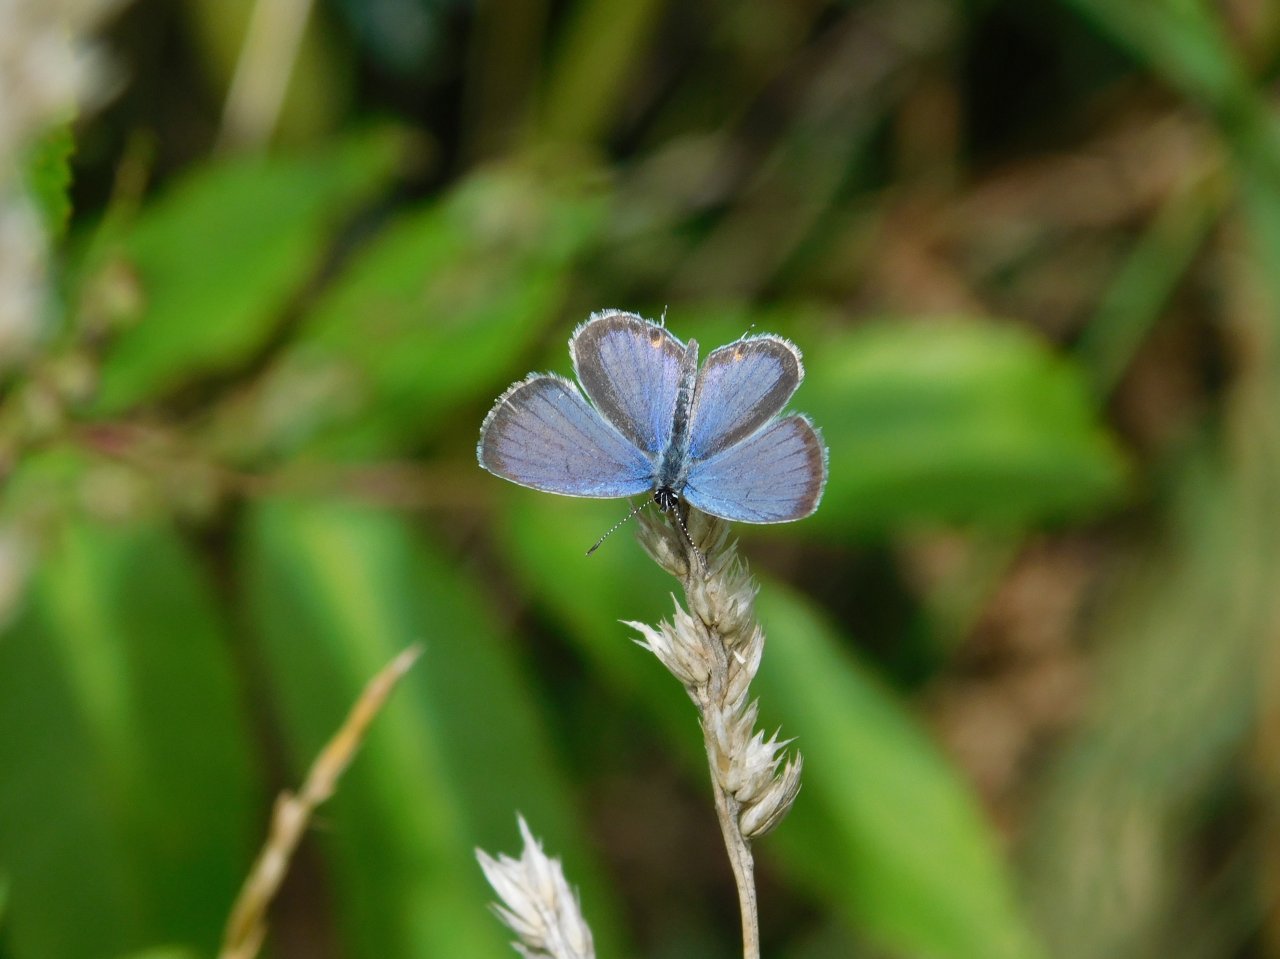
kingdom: Animalia
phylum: Arthropoda
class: Insecta
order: Lepidoptera
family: Lycaenidae
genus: Elkalyce
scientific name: Elkalyce comyntas
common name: Eastern Tailed-Blue
